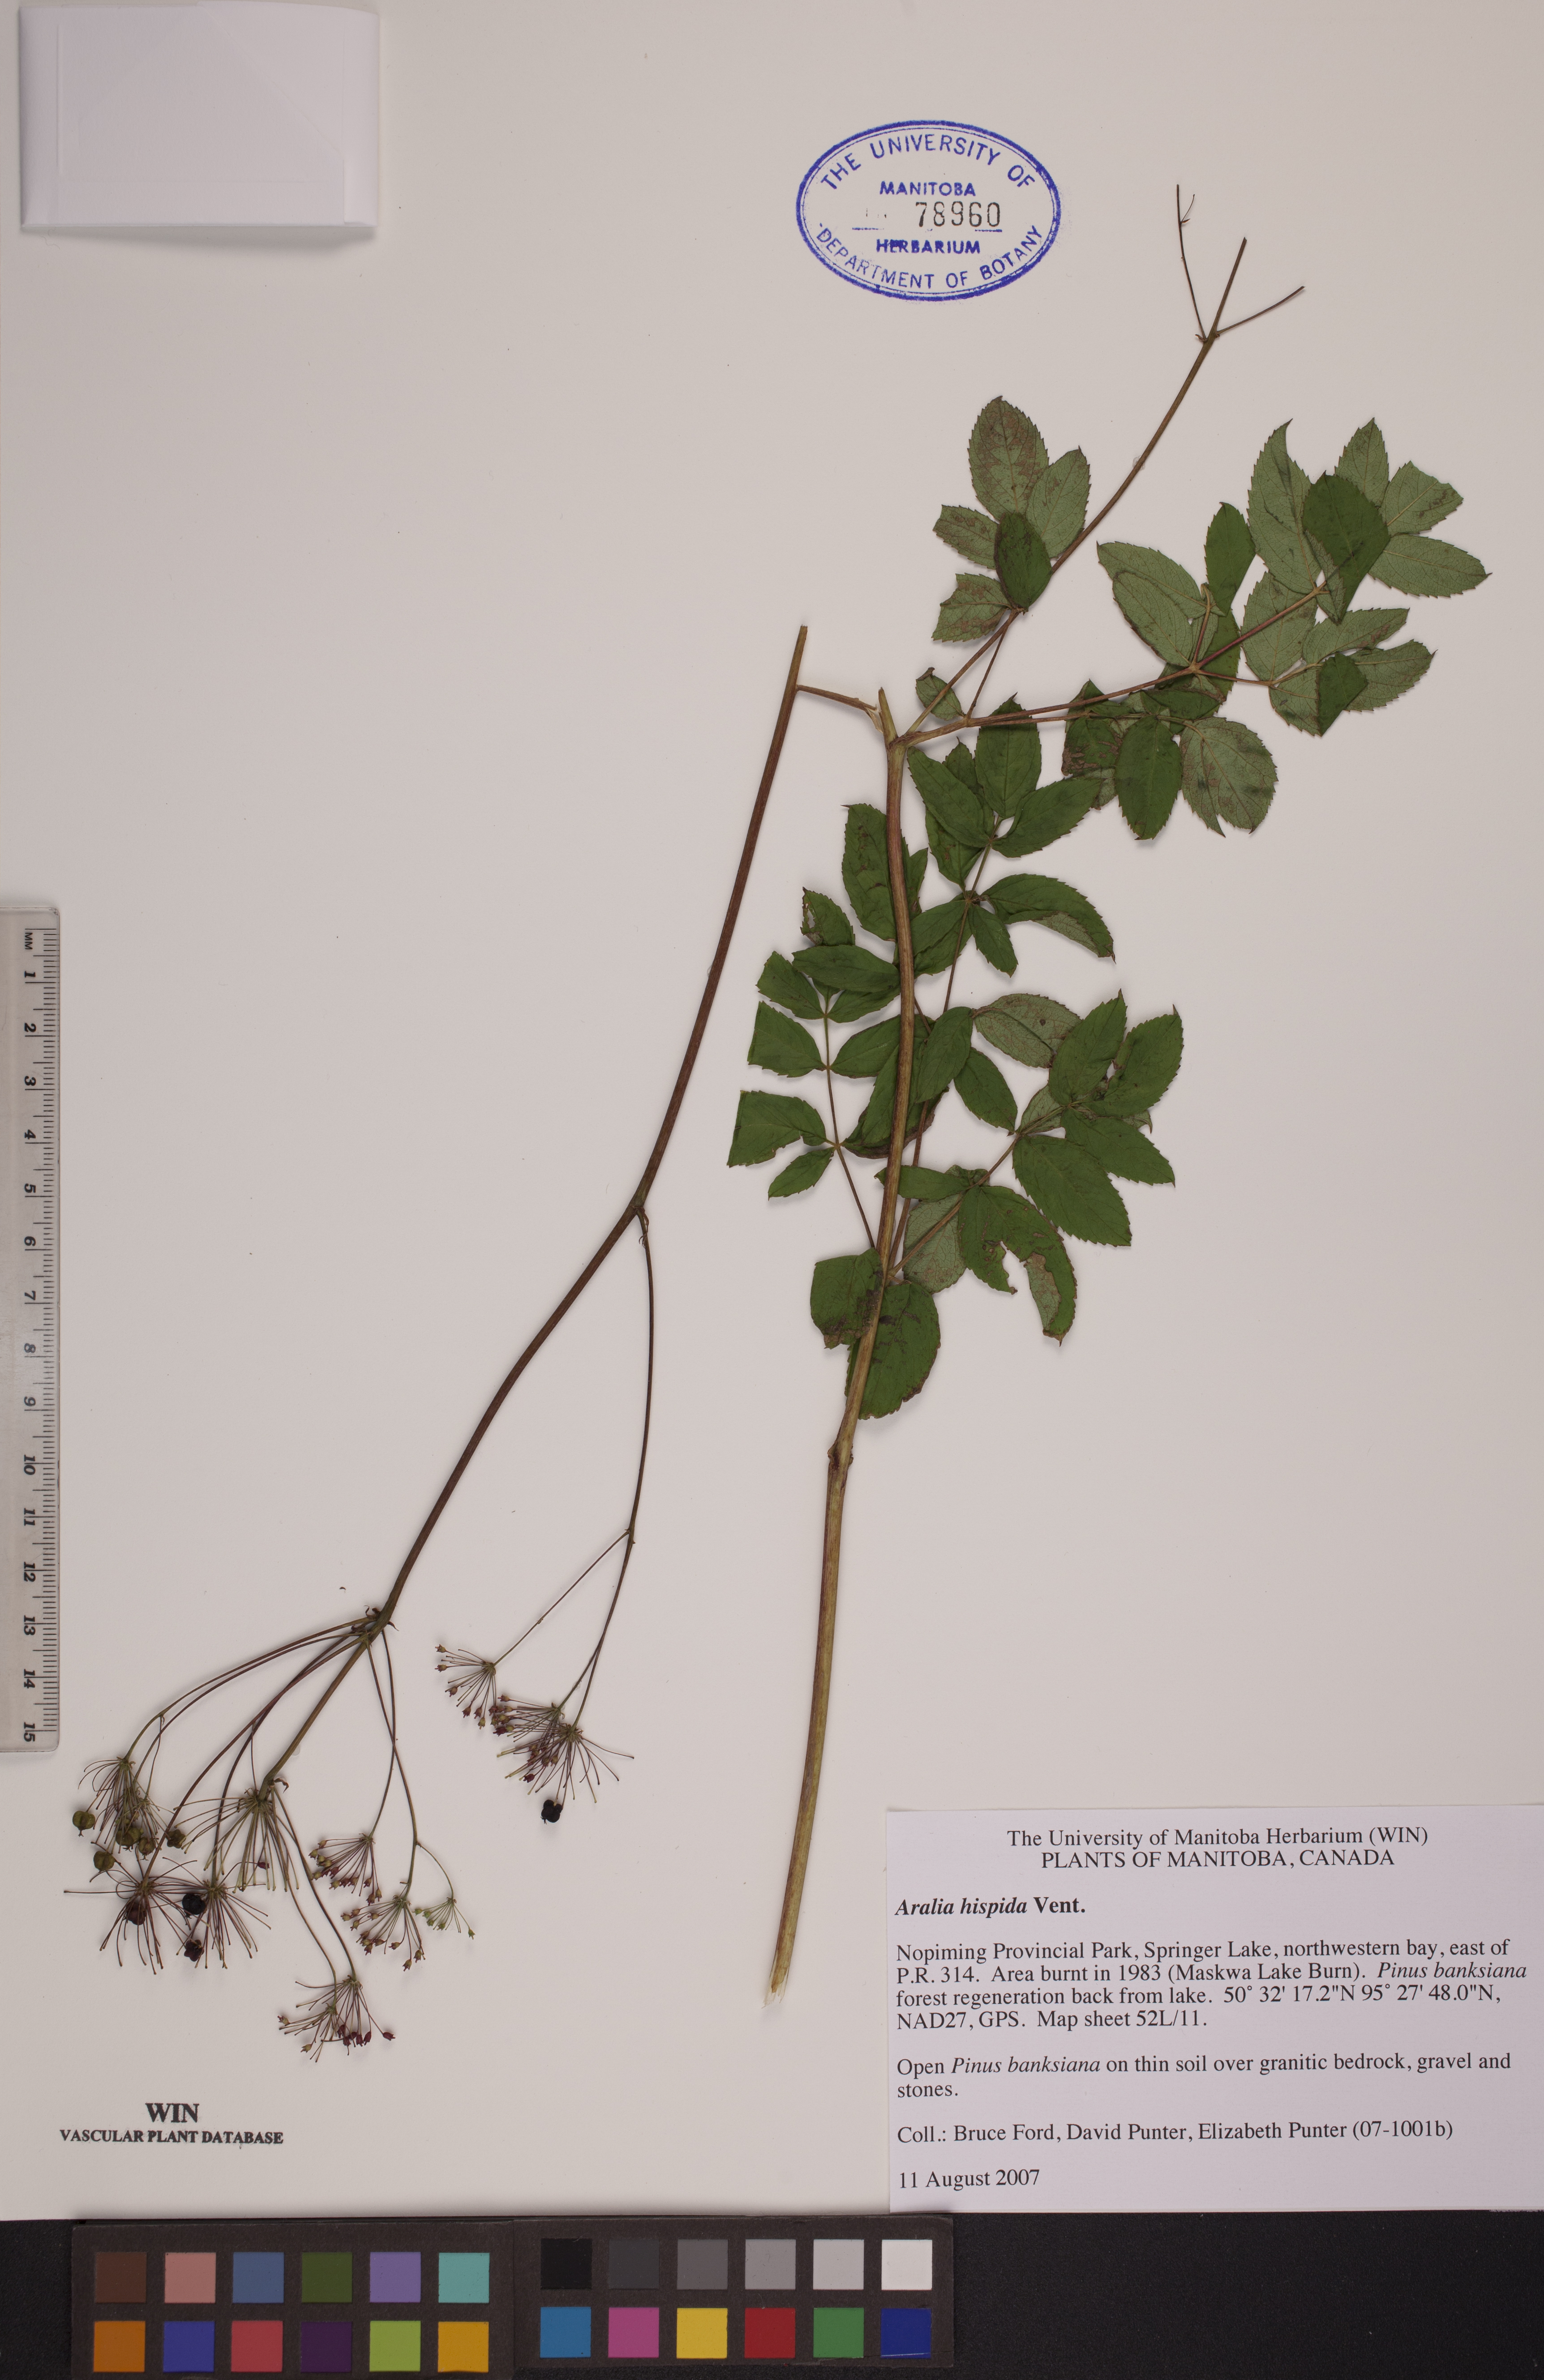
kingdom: Plantae
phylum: Tracheophyta
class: Magnoliopsida
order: Apiales
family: Araliaceae
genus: Aralia
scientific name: Aralia hispida
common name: Bristly sarsaparilla
